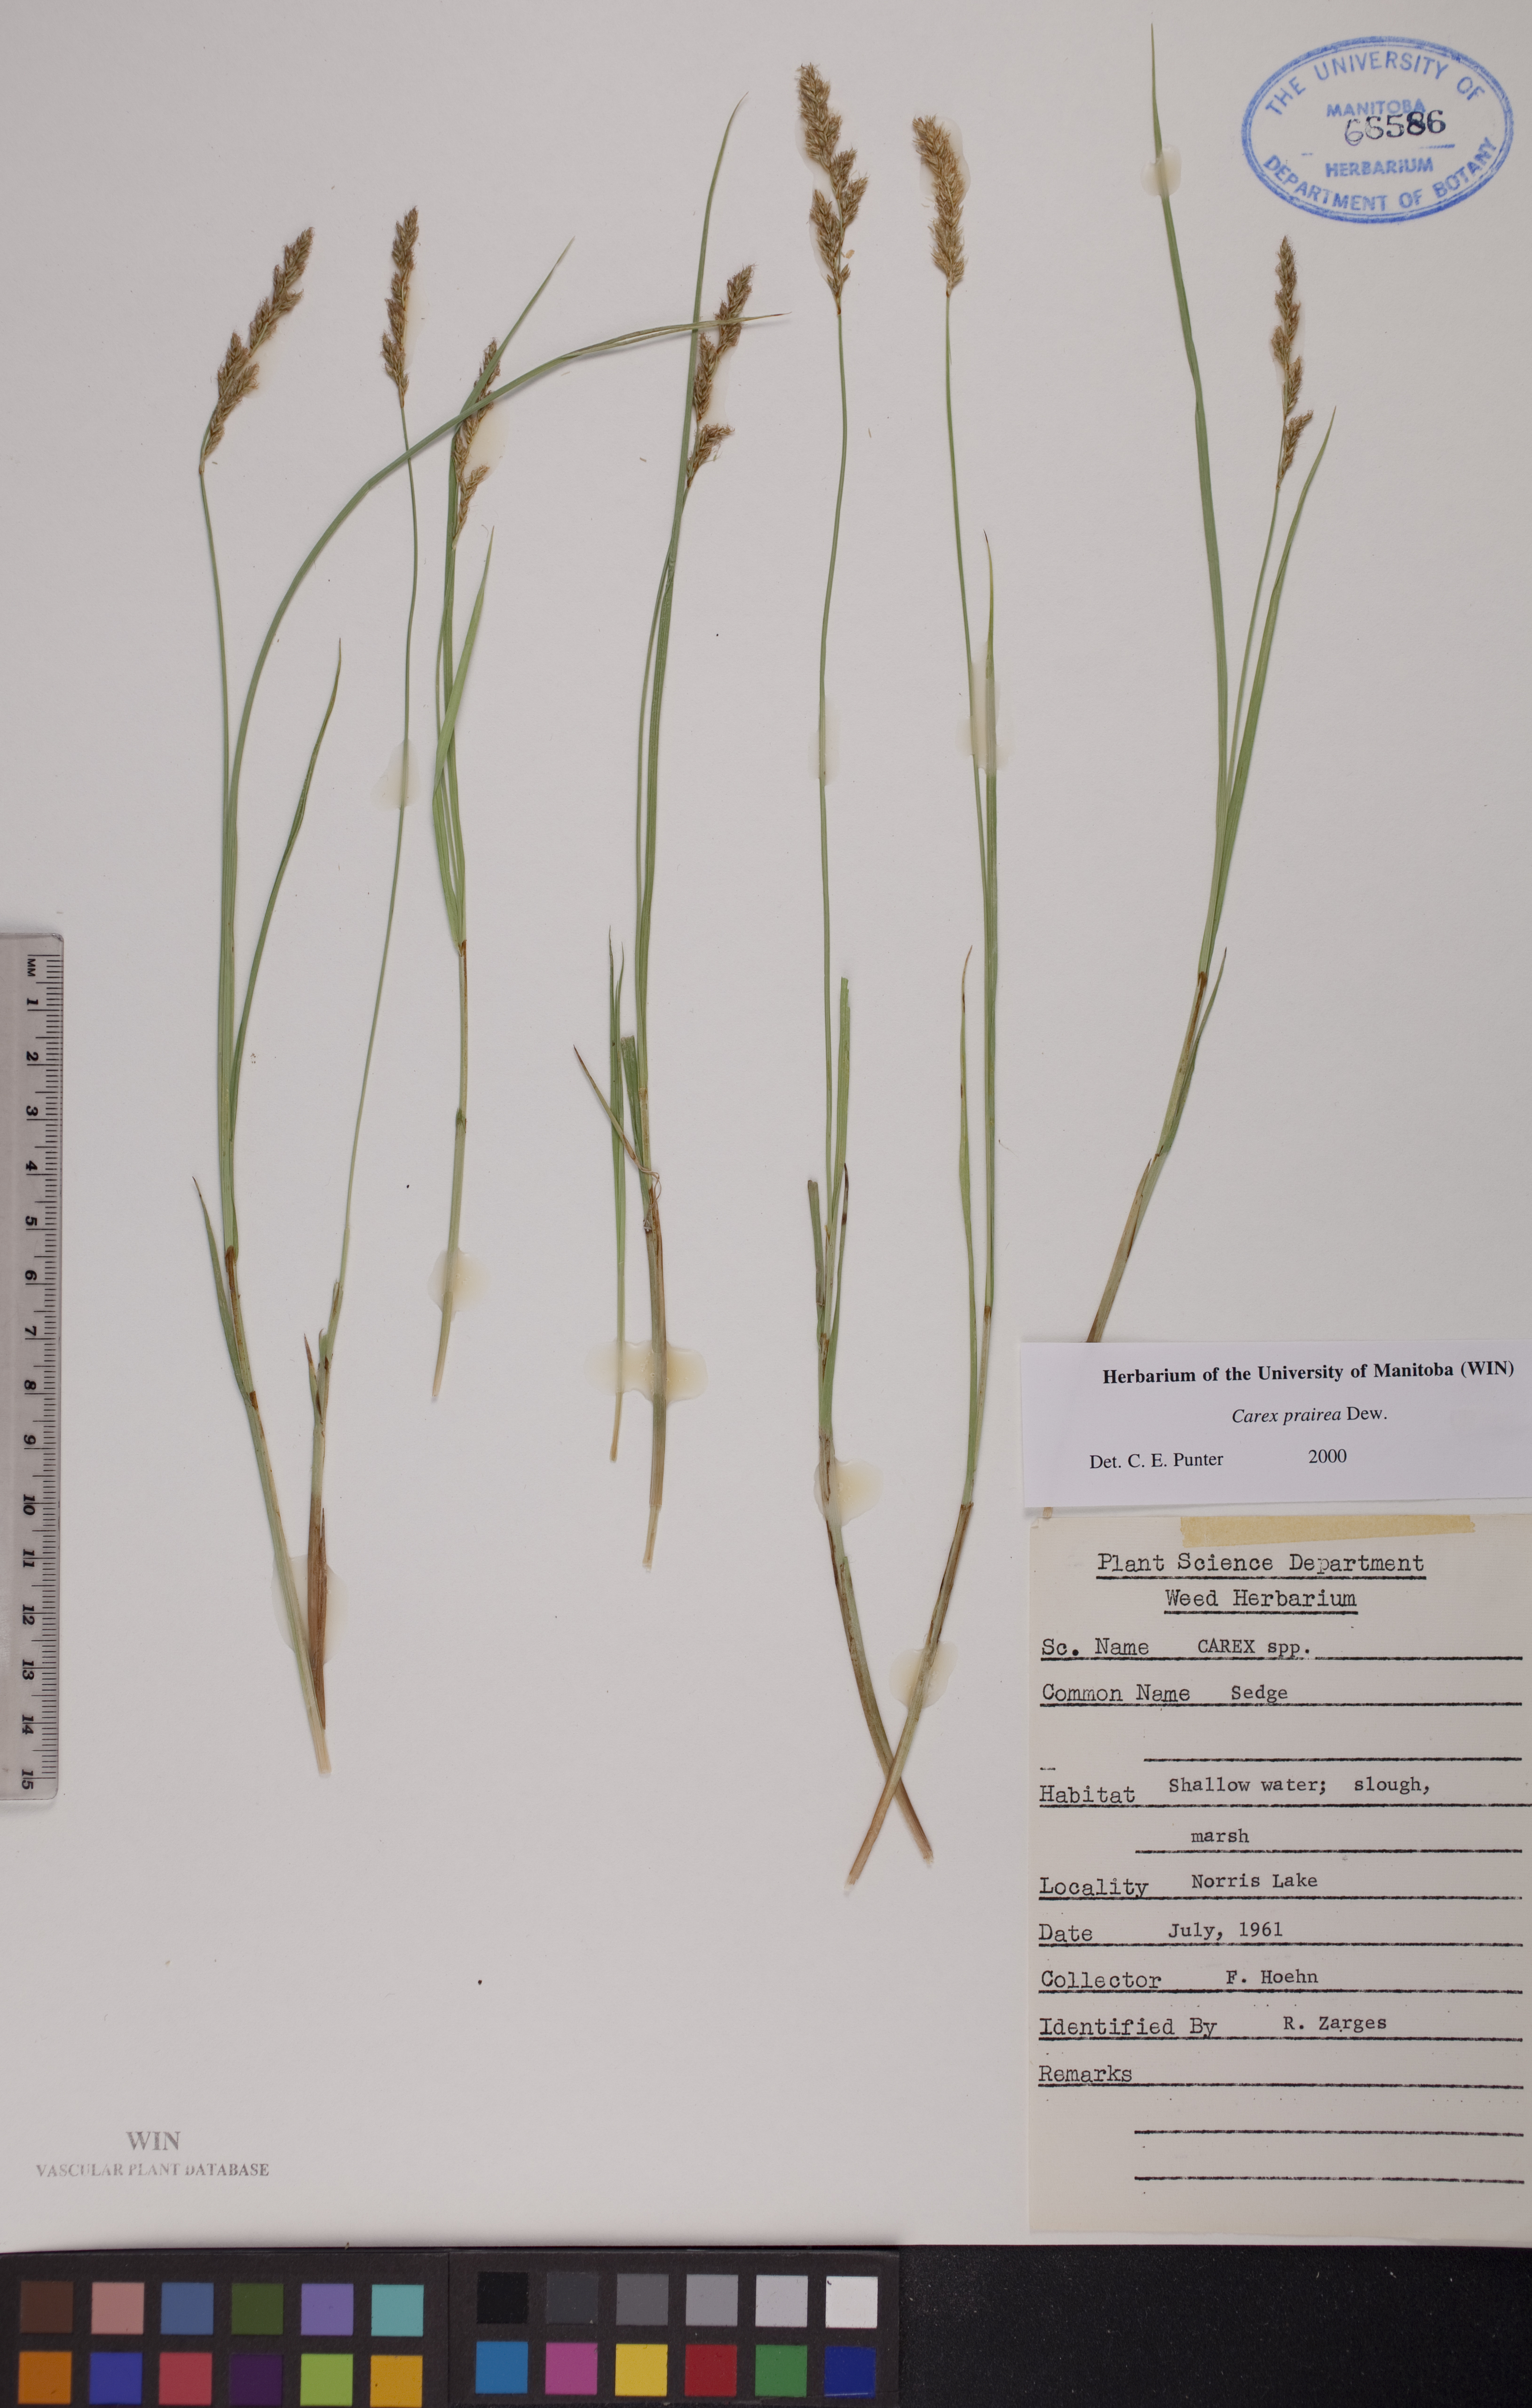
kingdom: Plantae
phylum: Tracheophyta
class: Liliopsida
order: Poales
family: Cyperaceae
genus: Carex
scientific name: Carex prairea
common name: Prairie sedge
